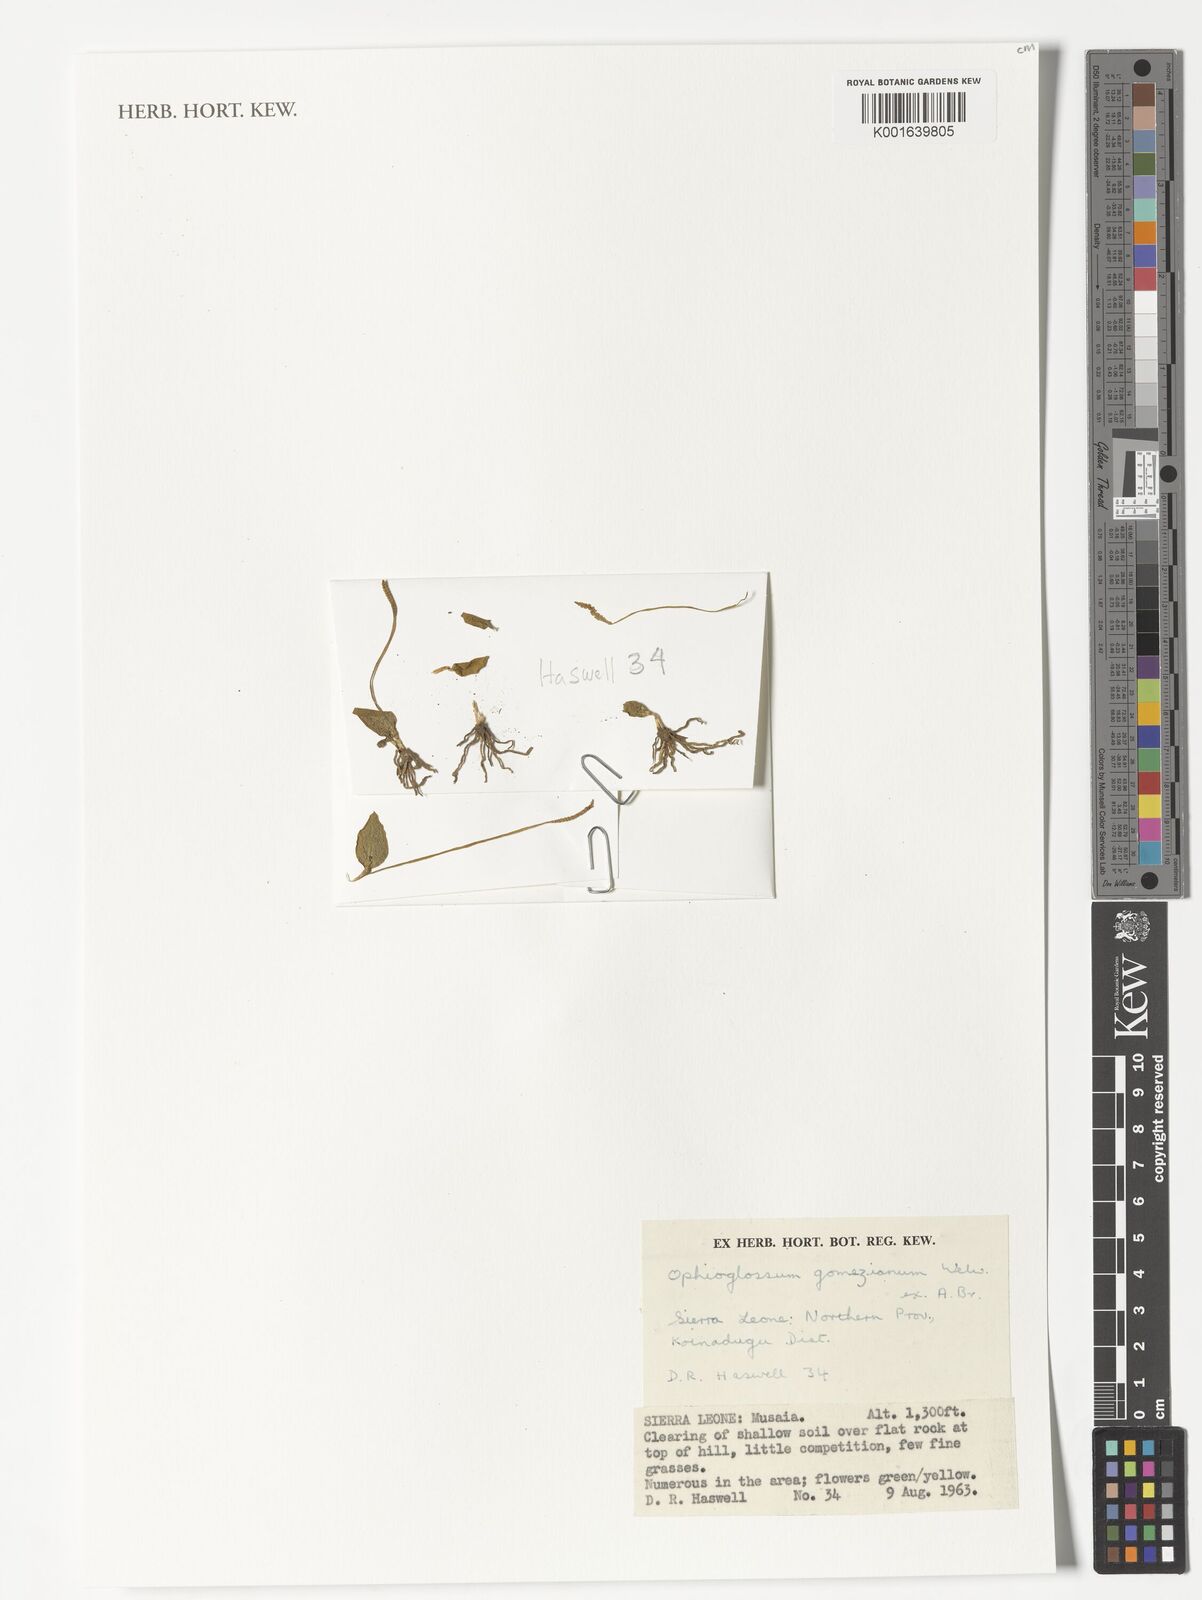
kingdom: Plantae
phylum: Tracheophyta
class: Polypodiopsida
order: Ophioglossales
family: Ophioglossaceae
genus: Ophioglossum
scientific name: Ophioglossum gomezianum
